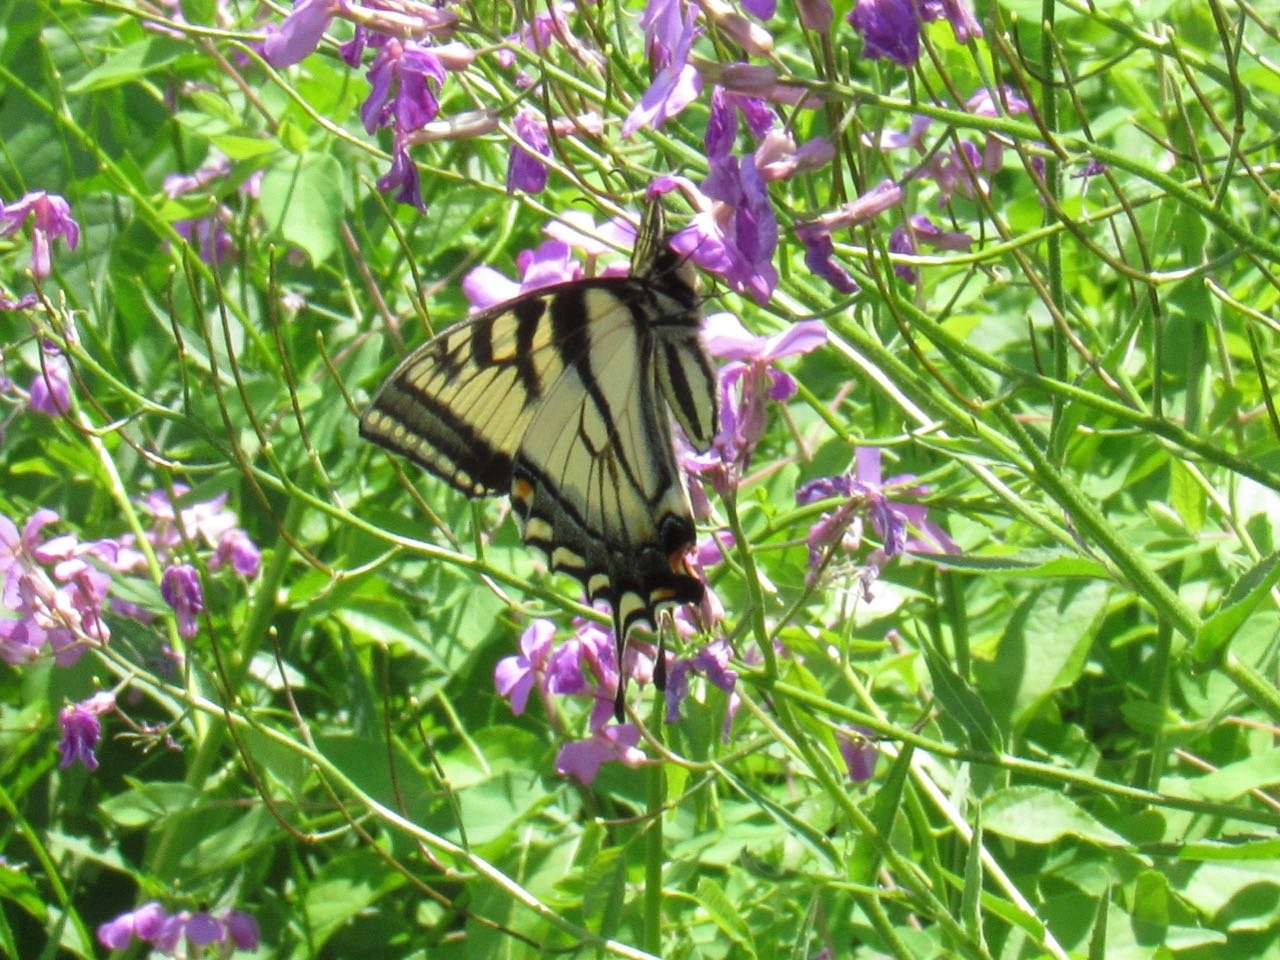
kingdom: Animalia
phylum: Arthropoda
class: Insecta
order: Lepidoptera
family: Papilionidae
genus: Pterourus
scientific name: Pterourus canadensis
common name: Canadian Tiger Swallowtail
